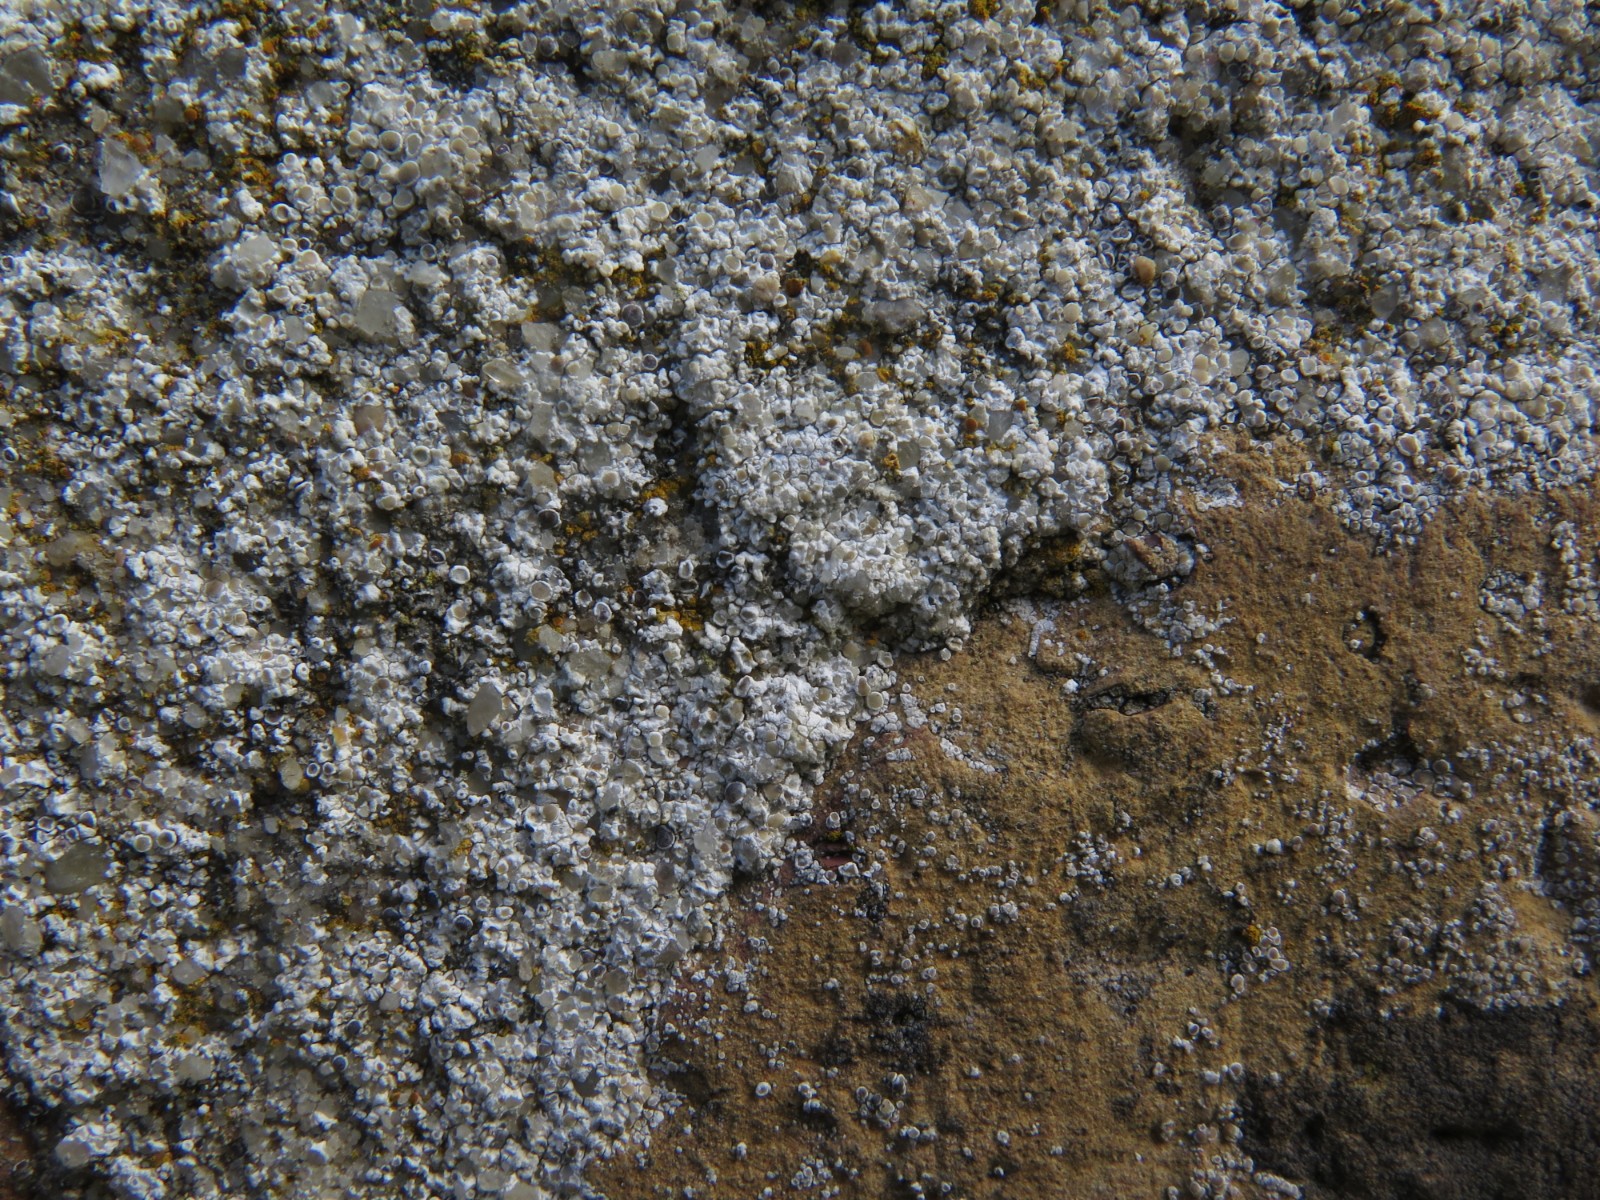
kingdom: Fungi
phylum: Ascomycota
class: Lecanoromycetes
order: Lecanorales
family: Lecanoraceae
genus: Polyozosia
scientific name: Polyozosia albescens
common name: cement-kantskivelav
